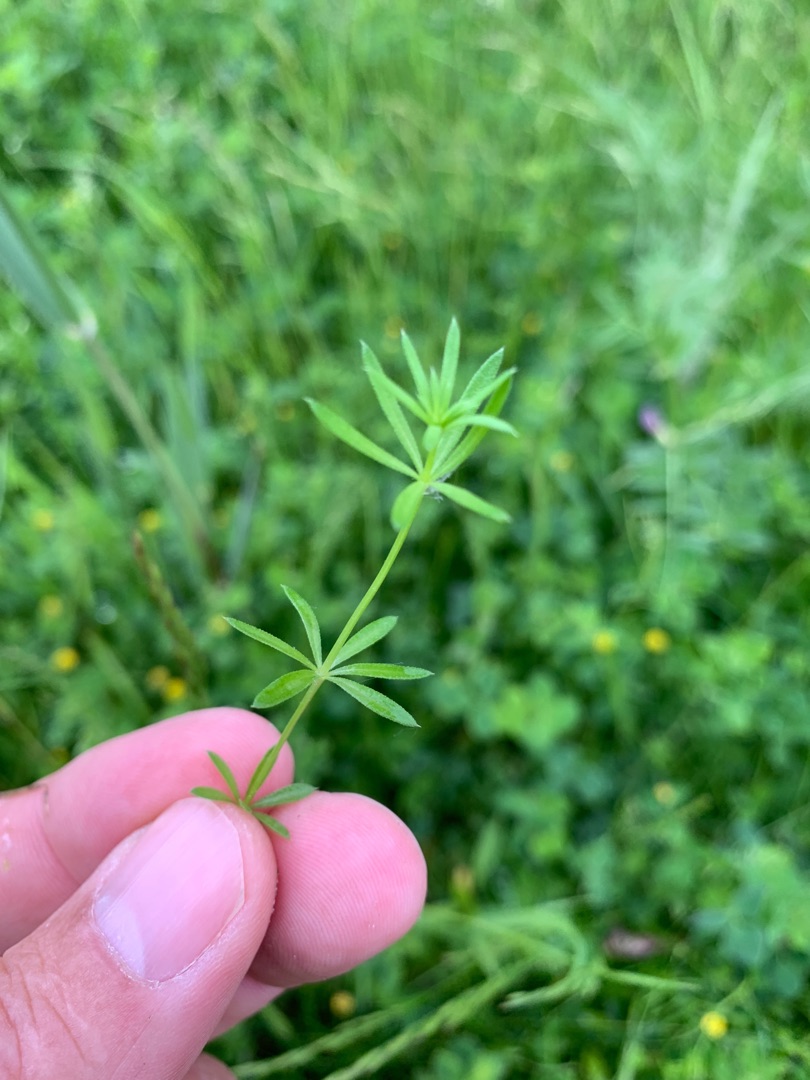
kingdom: Plantae
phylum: Tracheophyta
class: Magnoliopsida
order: Gentianales
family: Rubiaceae
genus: Galium
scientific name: Galium uliginosum
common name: Sump-snerre
